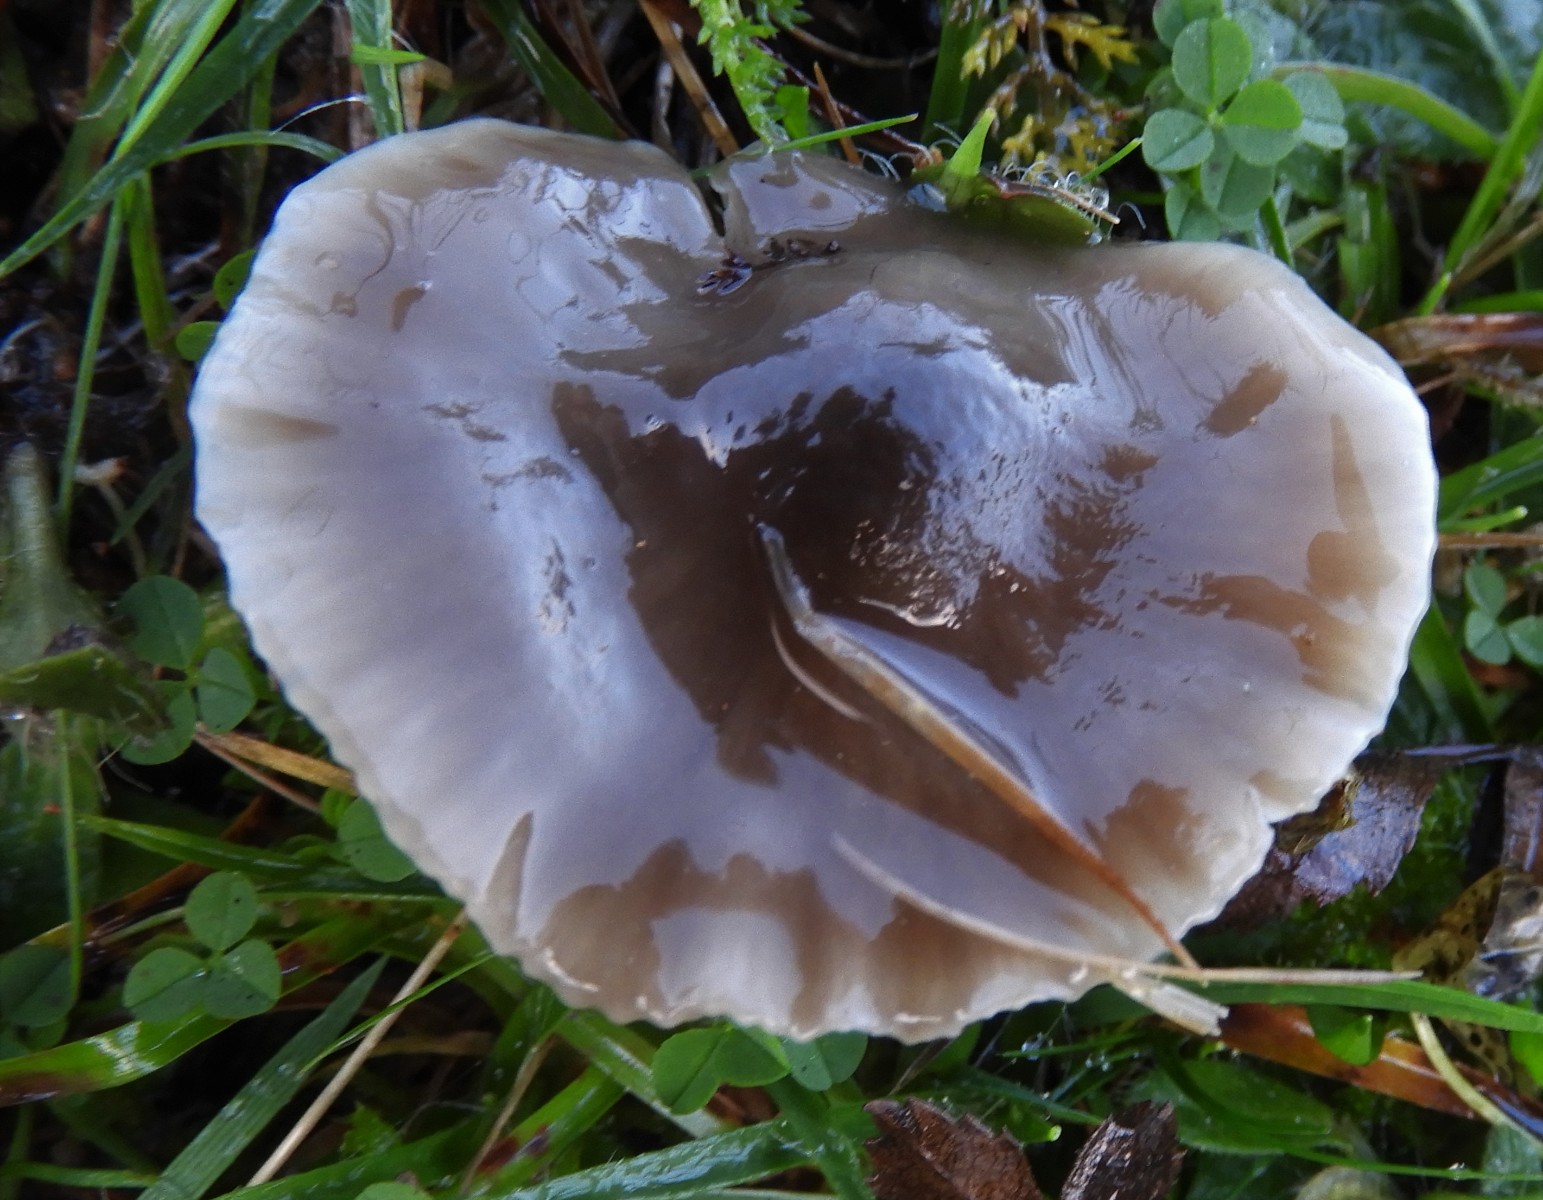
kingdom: Fungi
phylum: Basidiomycota
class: Agaricomycetes
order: Agaricales
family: Hygrophoraceae
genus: Gliophorus
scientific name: Gliophorus irrigatus
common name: slimet vokshat
